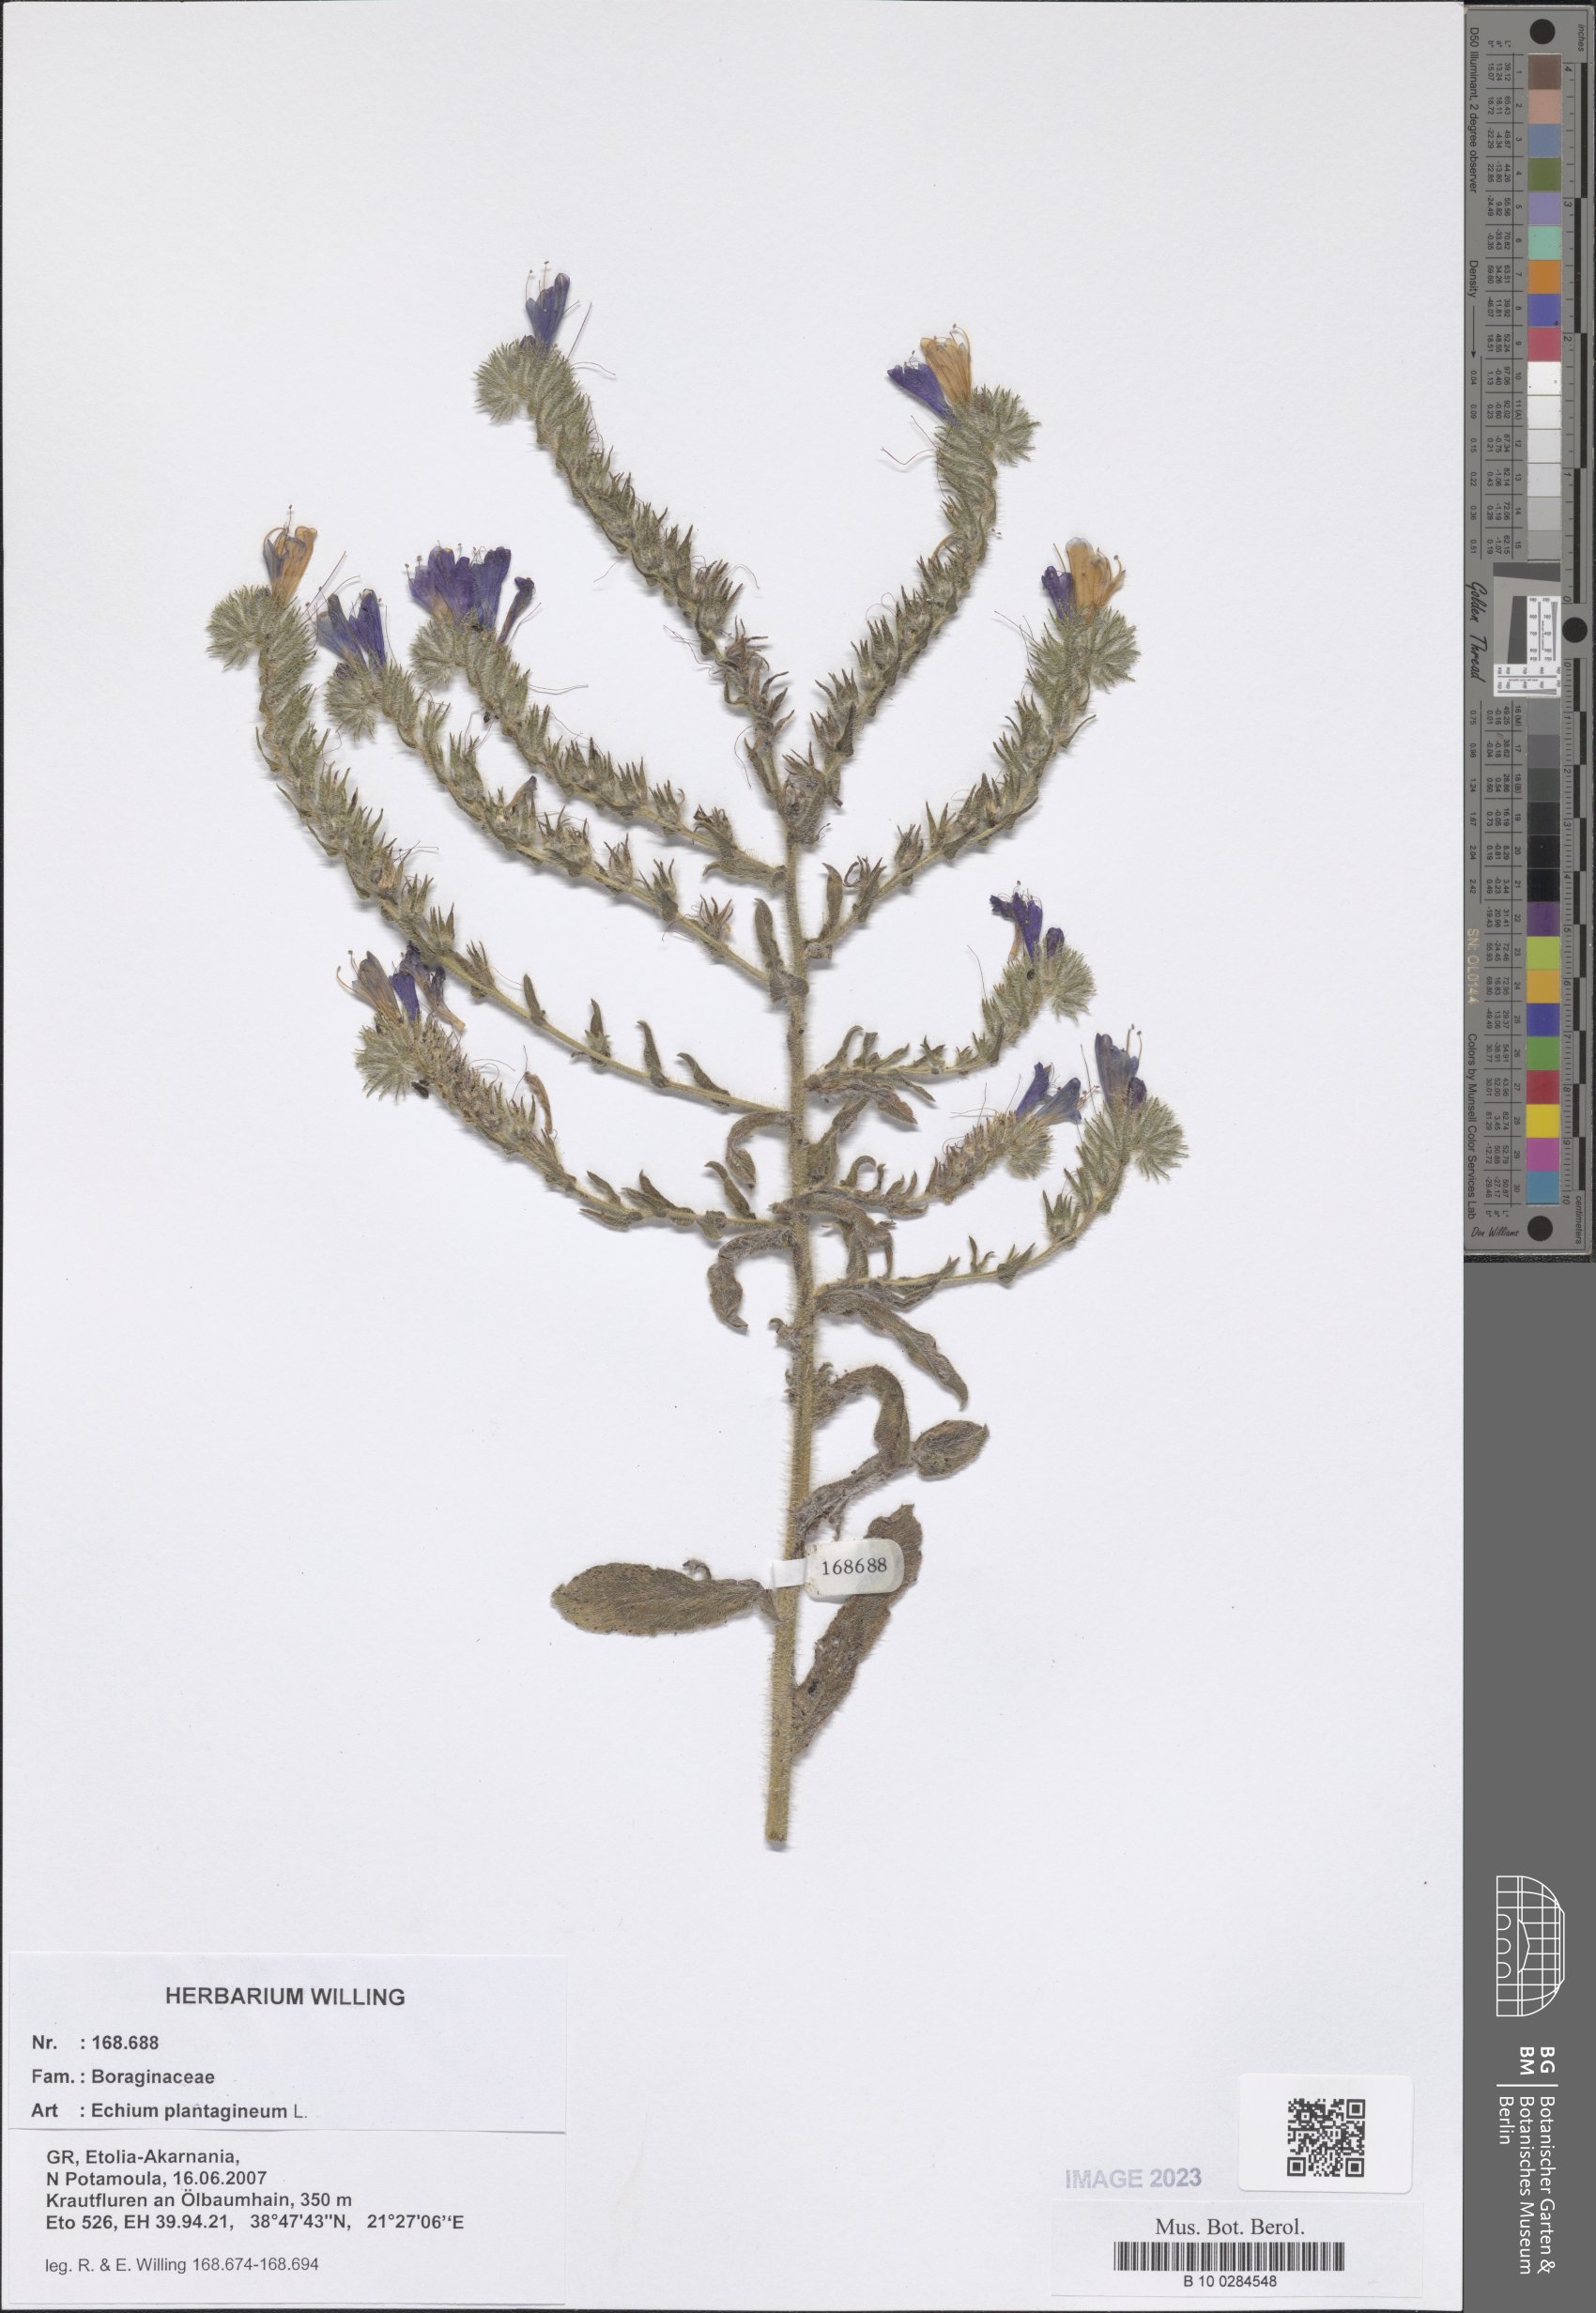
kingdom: Plantae
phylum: Tracheophyta
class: Magnoliopsida
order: Boraginales
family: Boraginaceae
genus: Echium
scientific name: Echium plantagineum
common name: Purple viper's-bugloss
